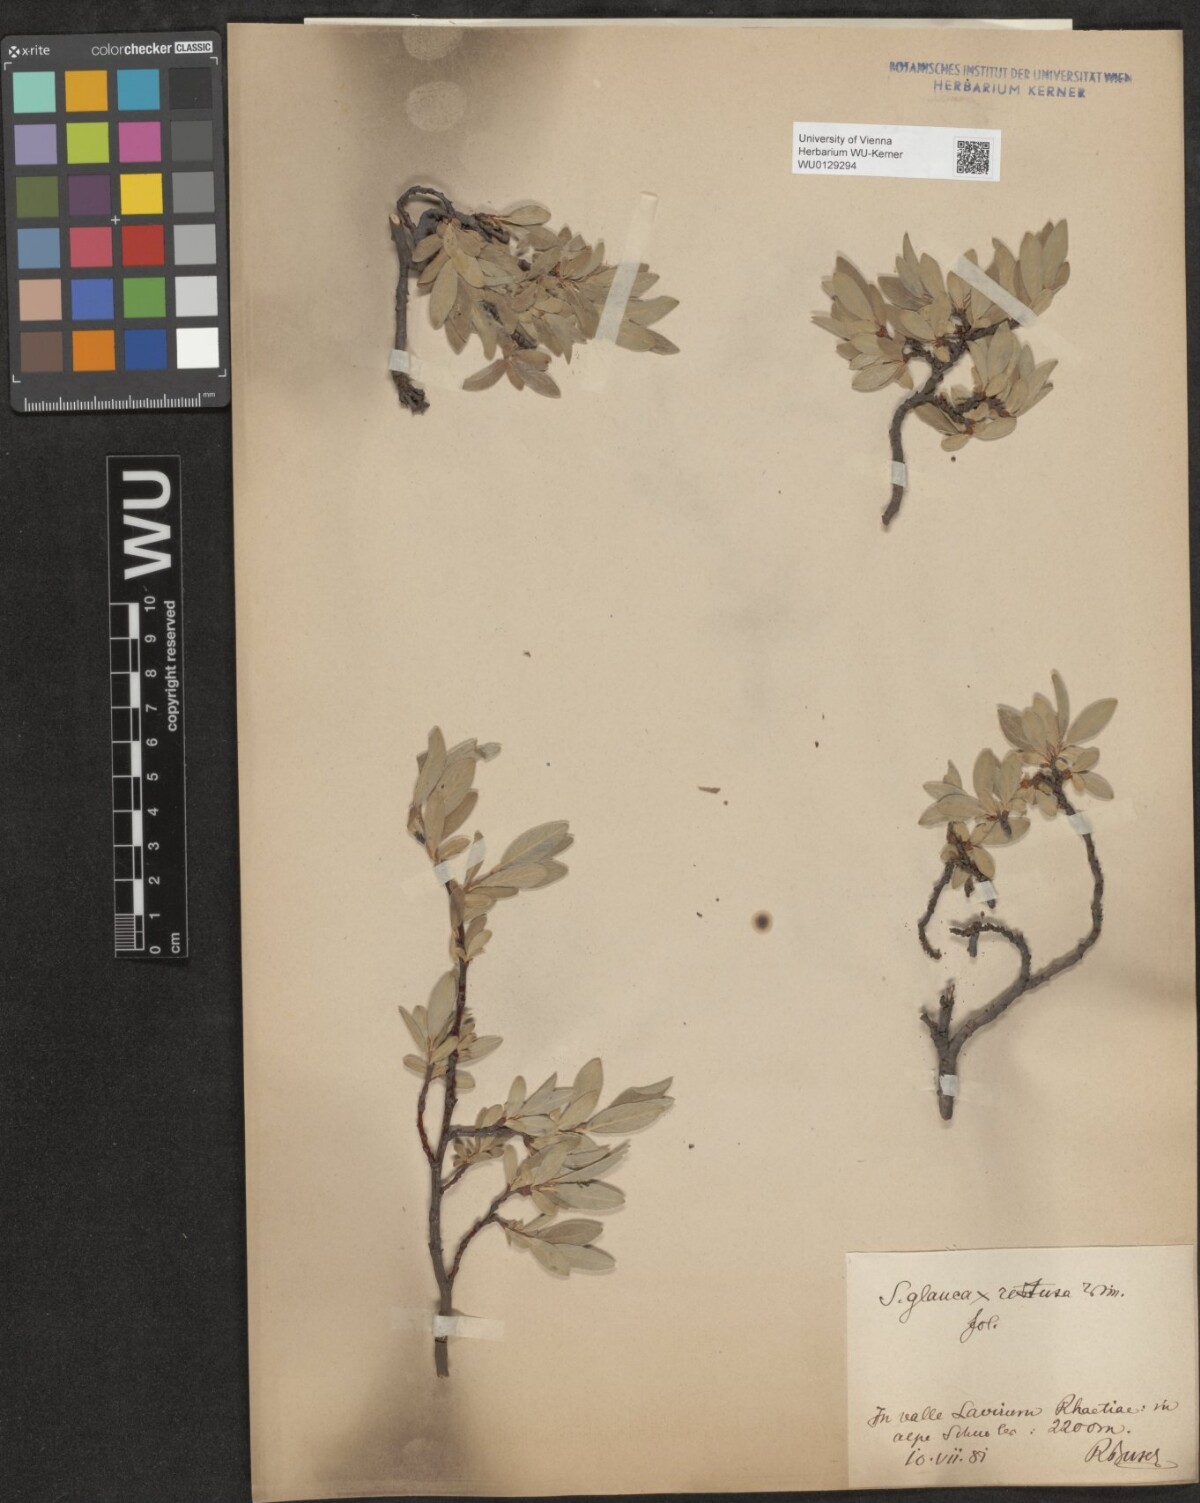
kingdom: Plantae
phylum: Tracheophyta
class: Magnoliopsida
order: Malpighiales
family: Salicaceae
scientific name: Salicaceae
